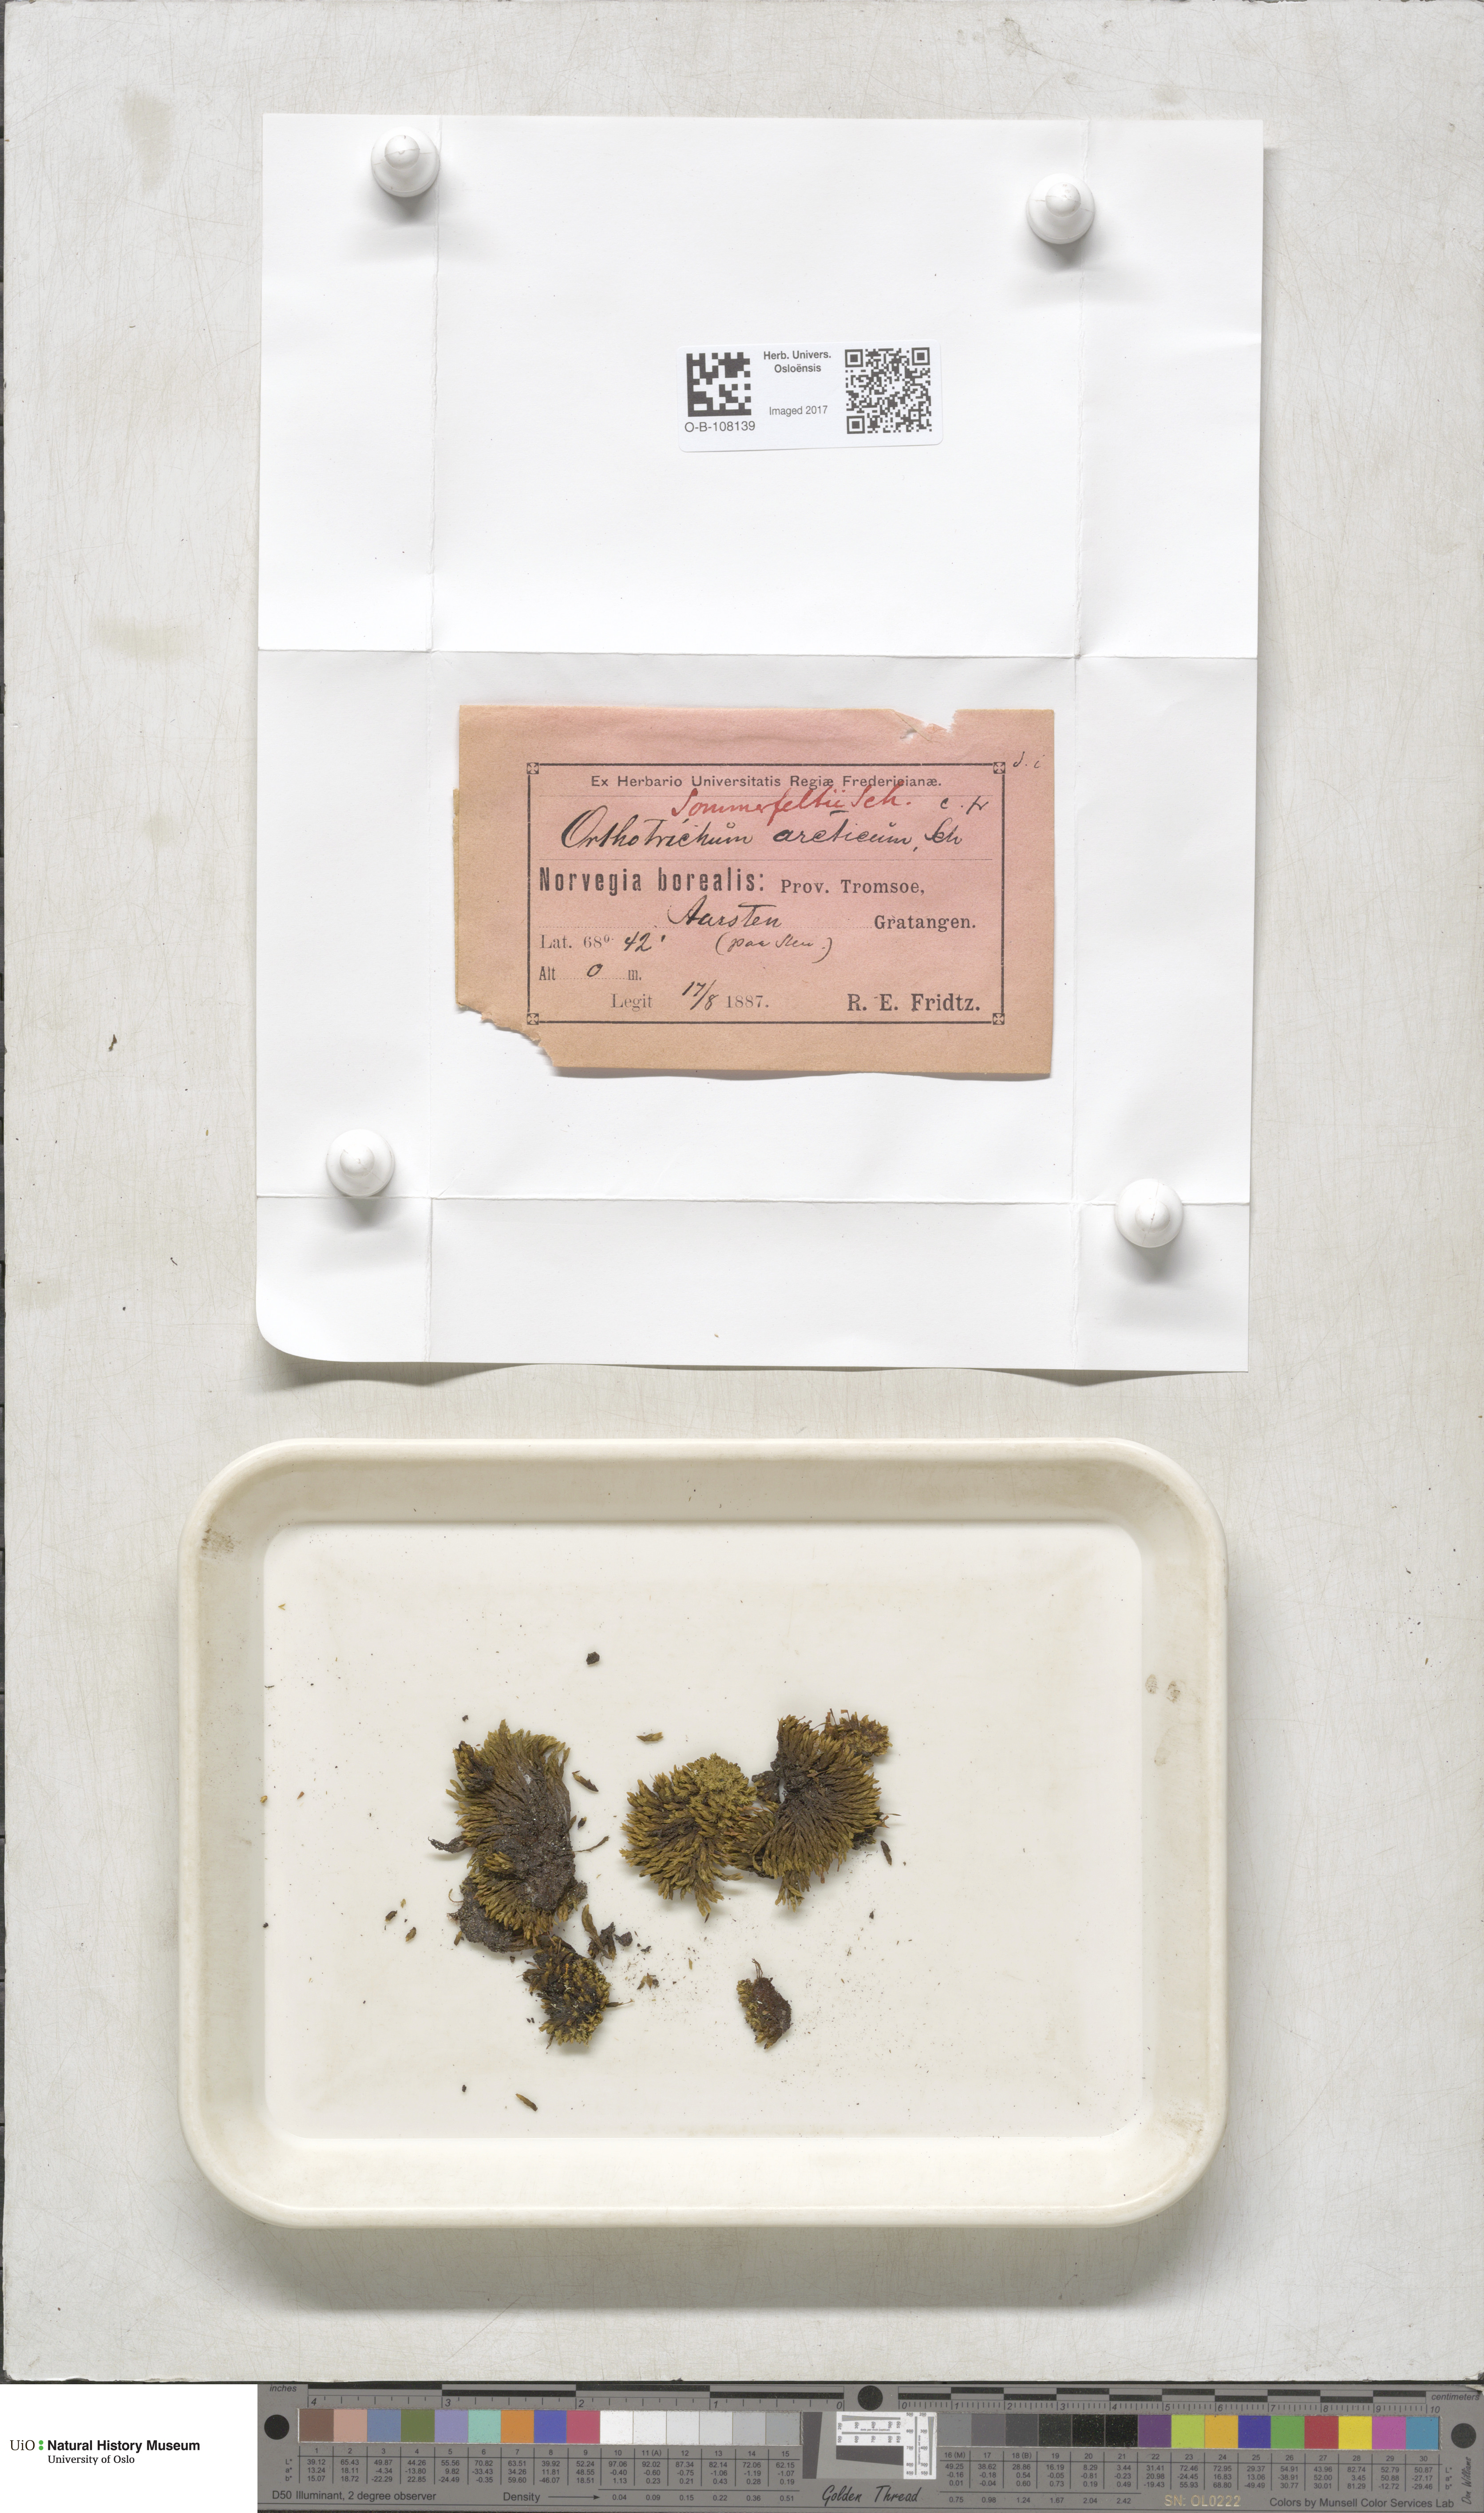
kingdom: Plantae
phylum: Bryophyta
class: Bryopsida
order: Orthotrichales
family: Orthotrichaceae
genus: Lewinskya
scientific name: Lewinskya pylaisii
